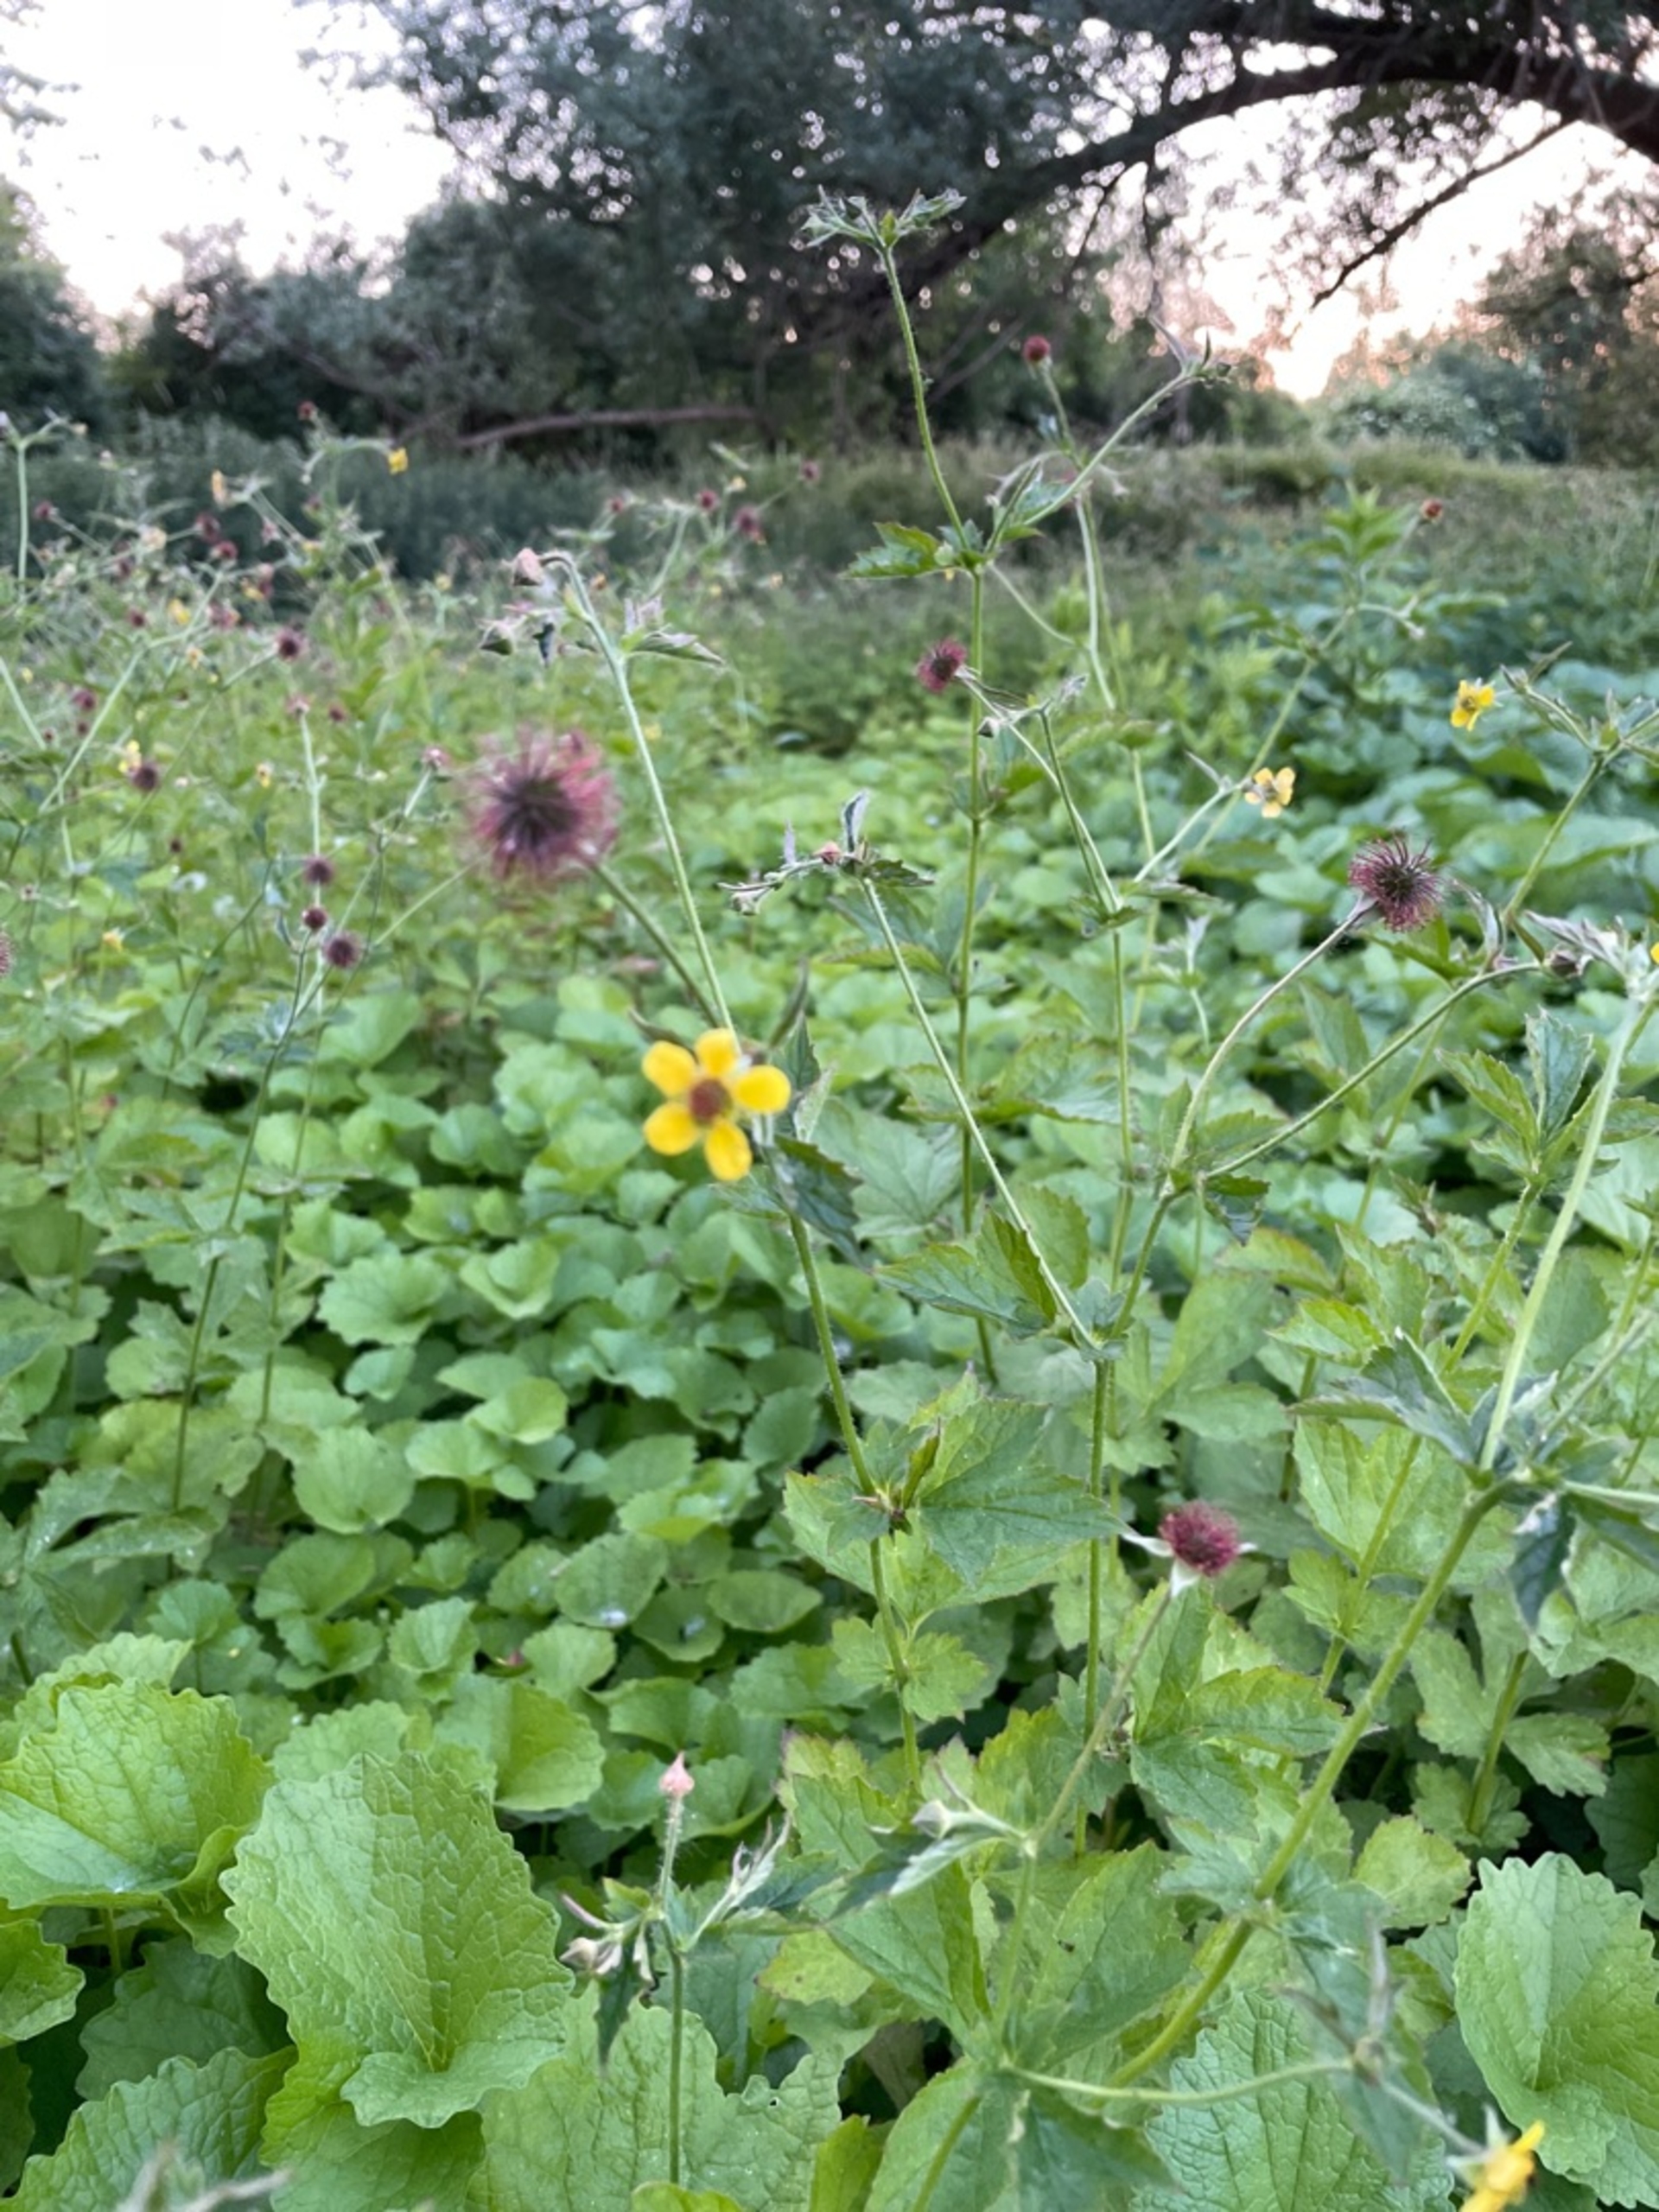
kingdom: Plantae
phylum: Tracheophyta
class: Magnoliopsida
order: Rosales
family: Rosaceae
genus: Geum
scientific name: Geum urbanum
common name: Feber-nellikerod
